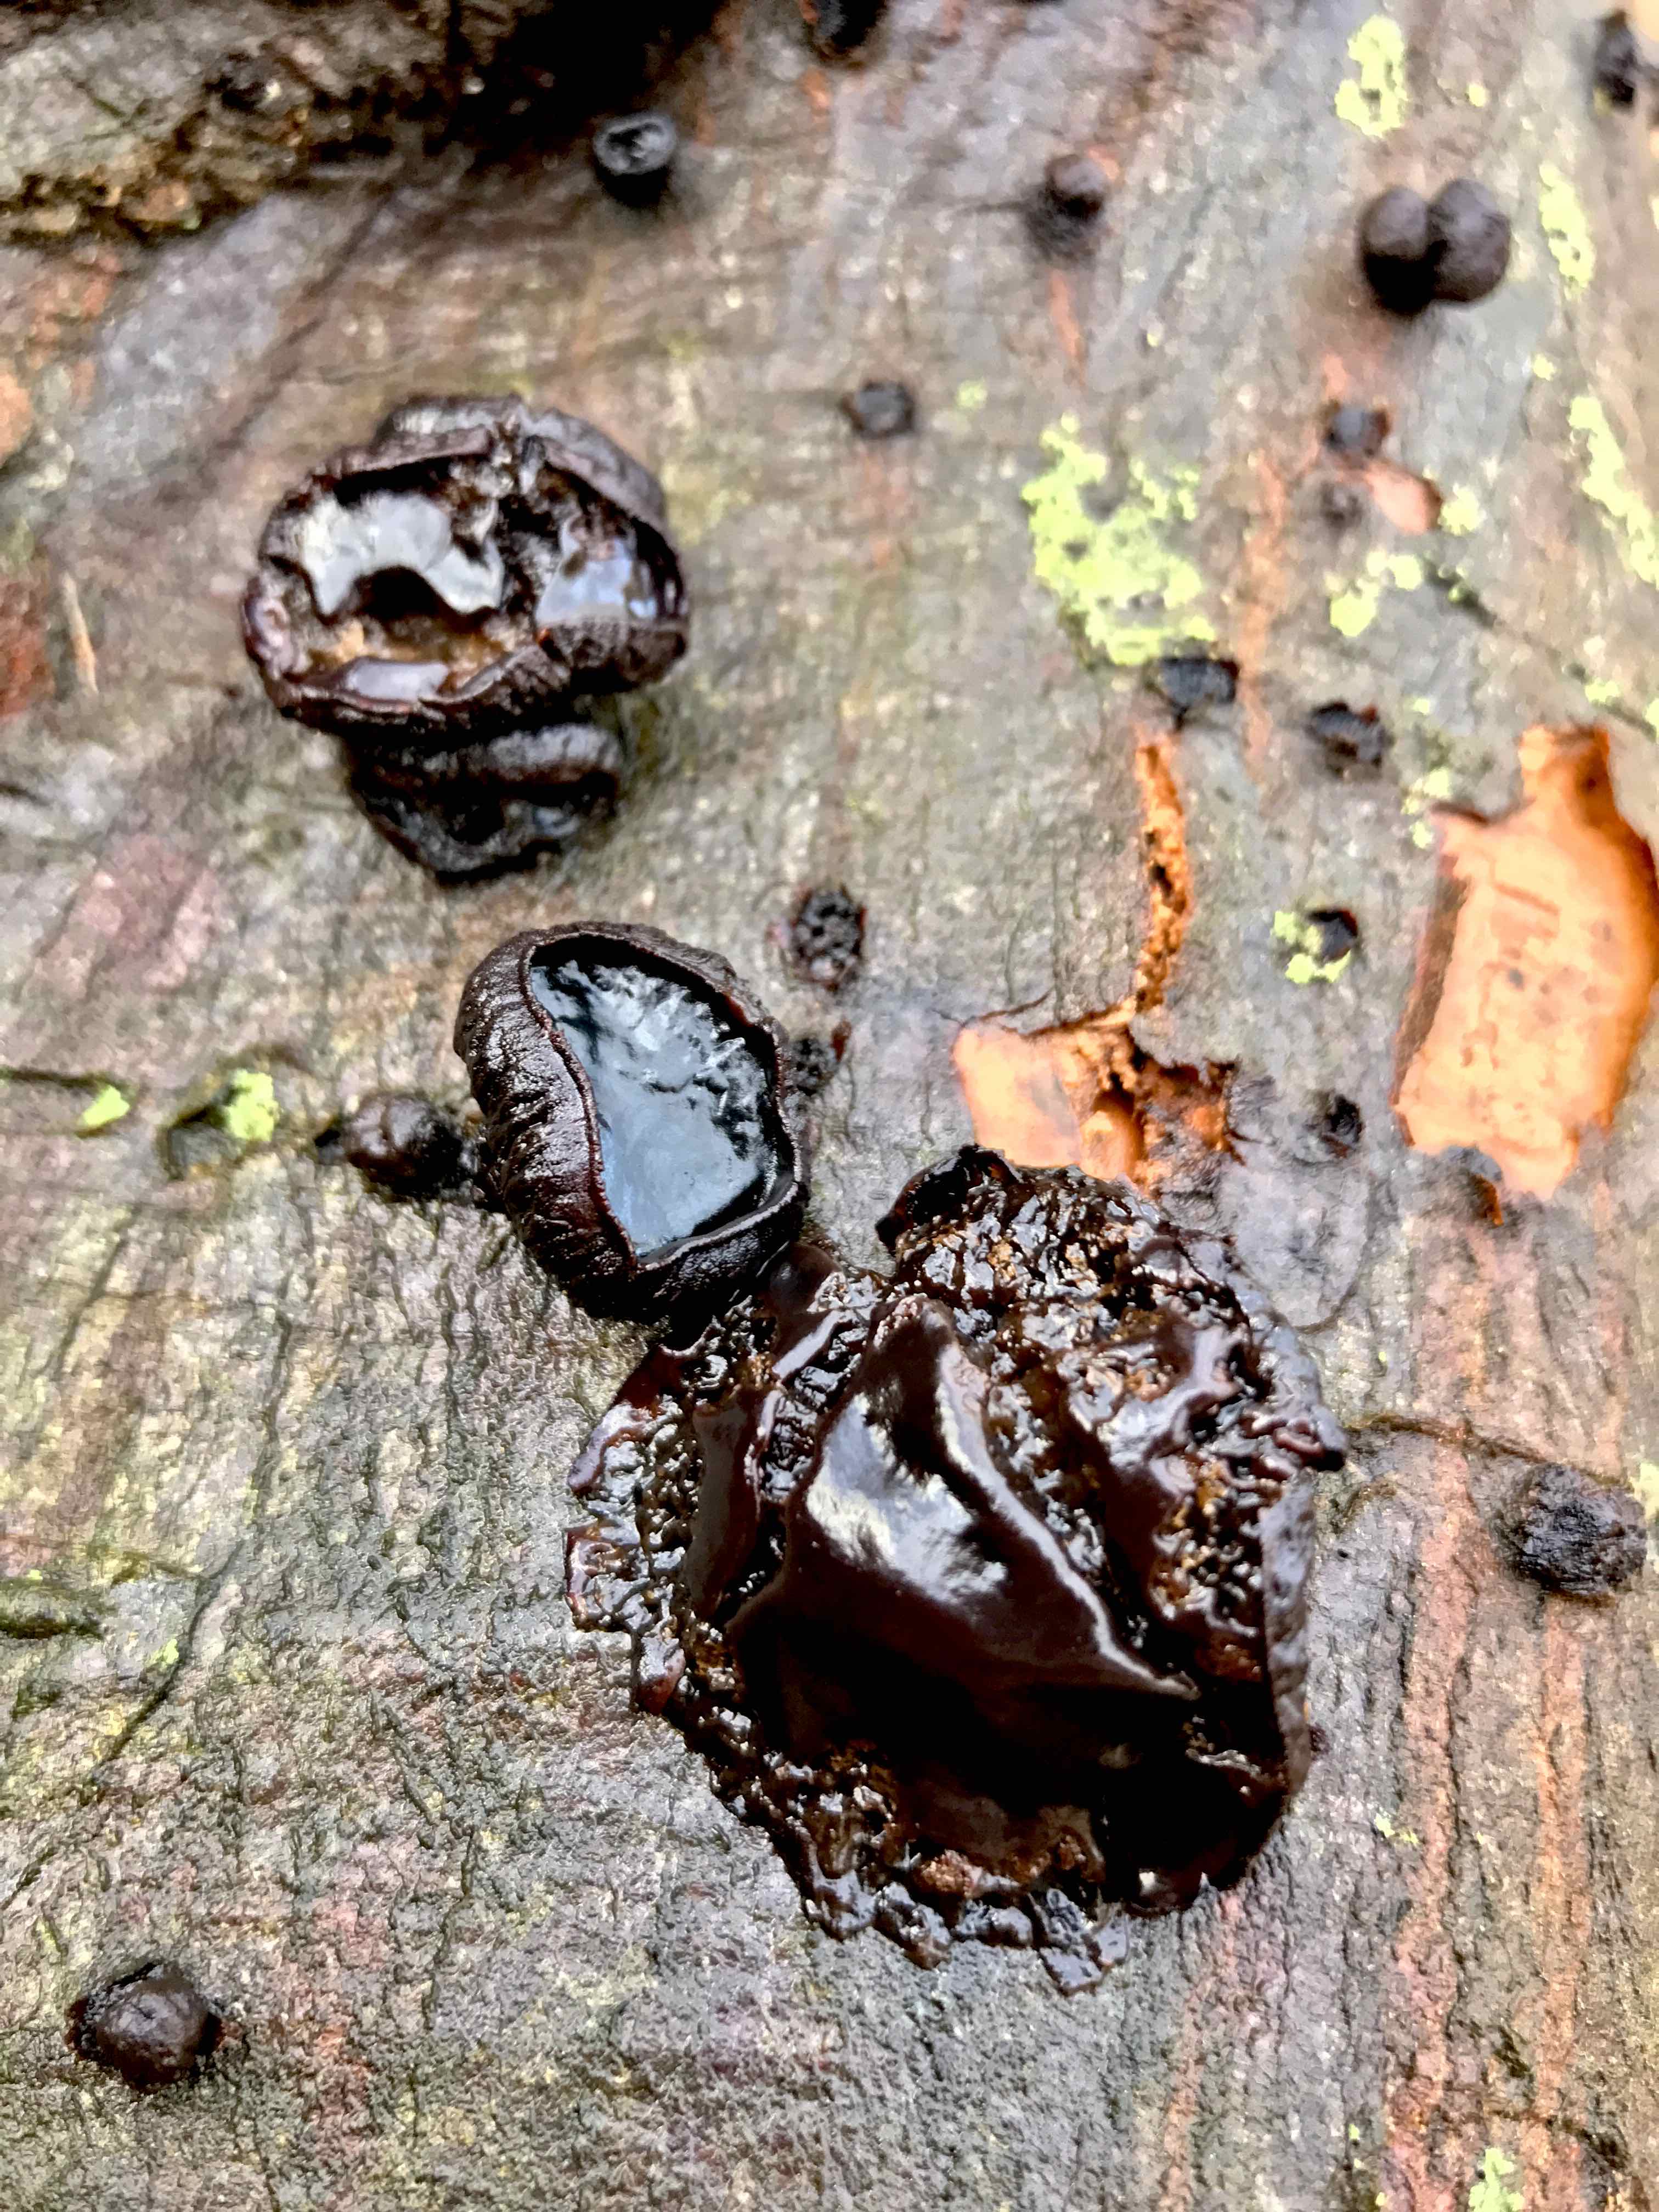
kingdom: Fungi
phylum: Ascomycota
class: Leotiomycetes
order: Phacidiales
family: Phacidiaceae
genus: Bulgaria
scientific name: Bulgaria inquinans
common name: afsmittende topsvamp
